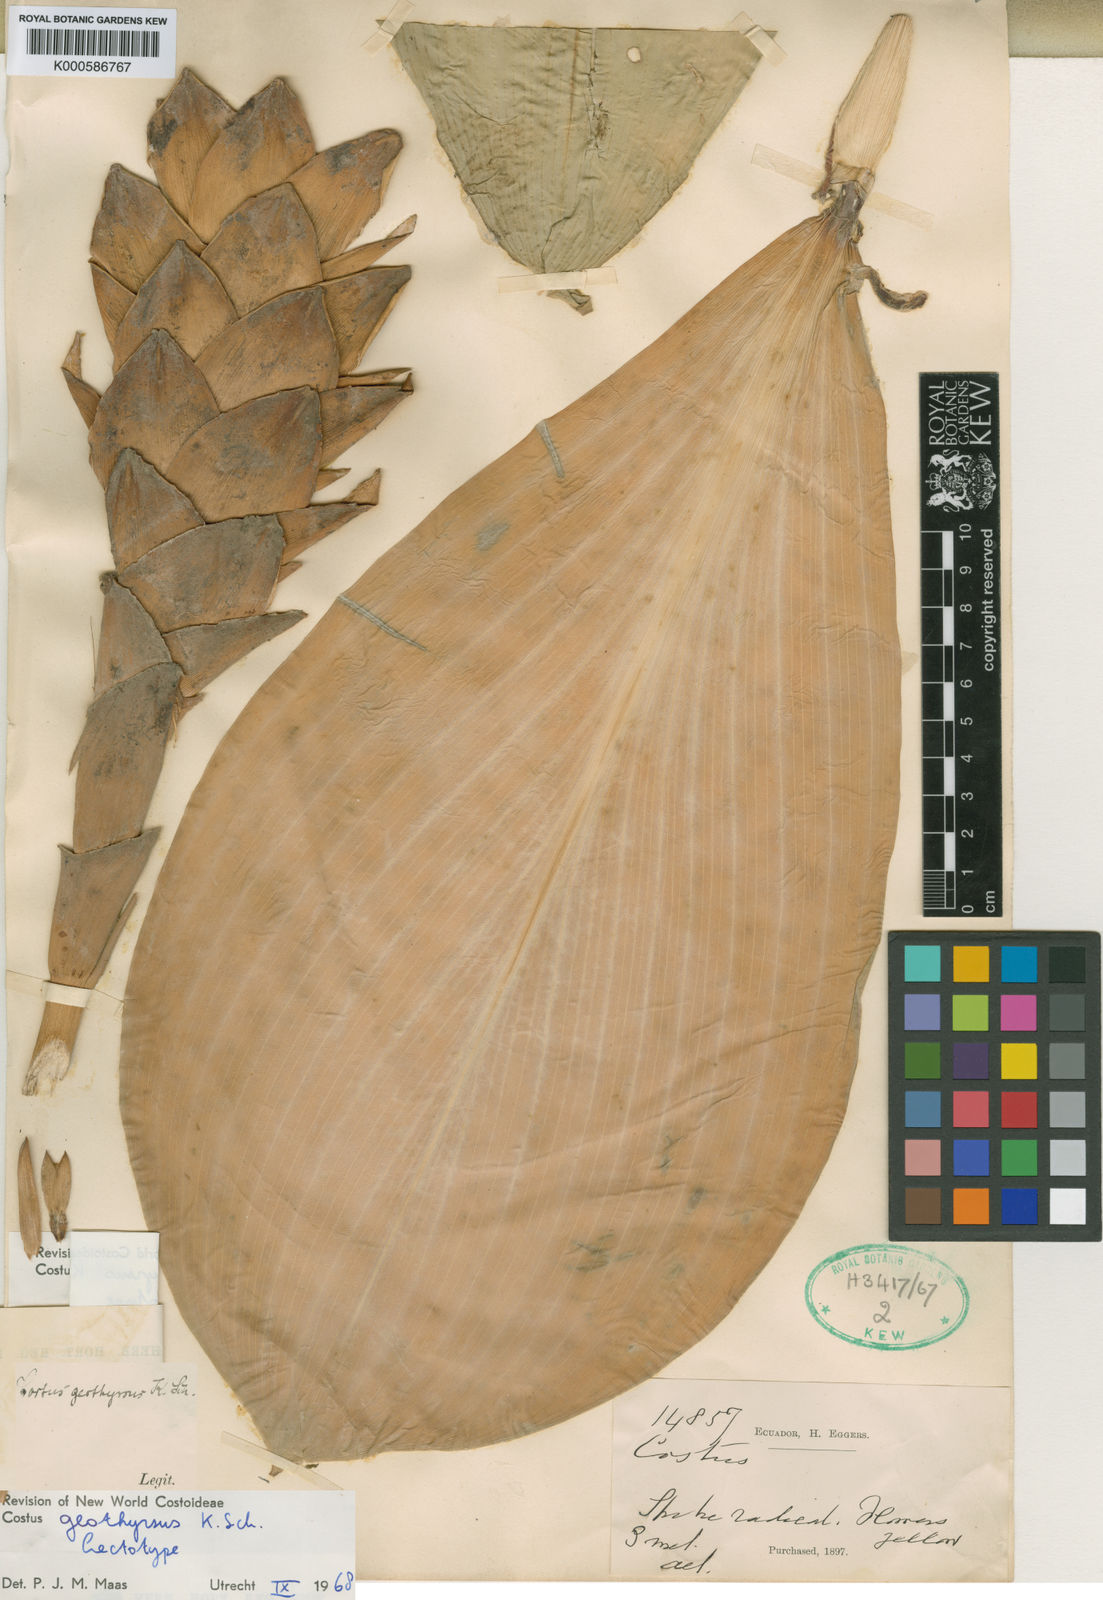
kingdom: Plantae
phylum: Tracheophyta
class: Liliopsida
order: Zingiberales
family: Costaceae
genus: Costus
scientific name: Costus geothyrsus
